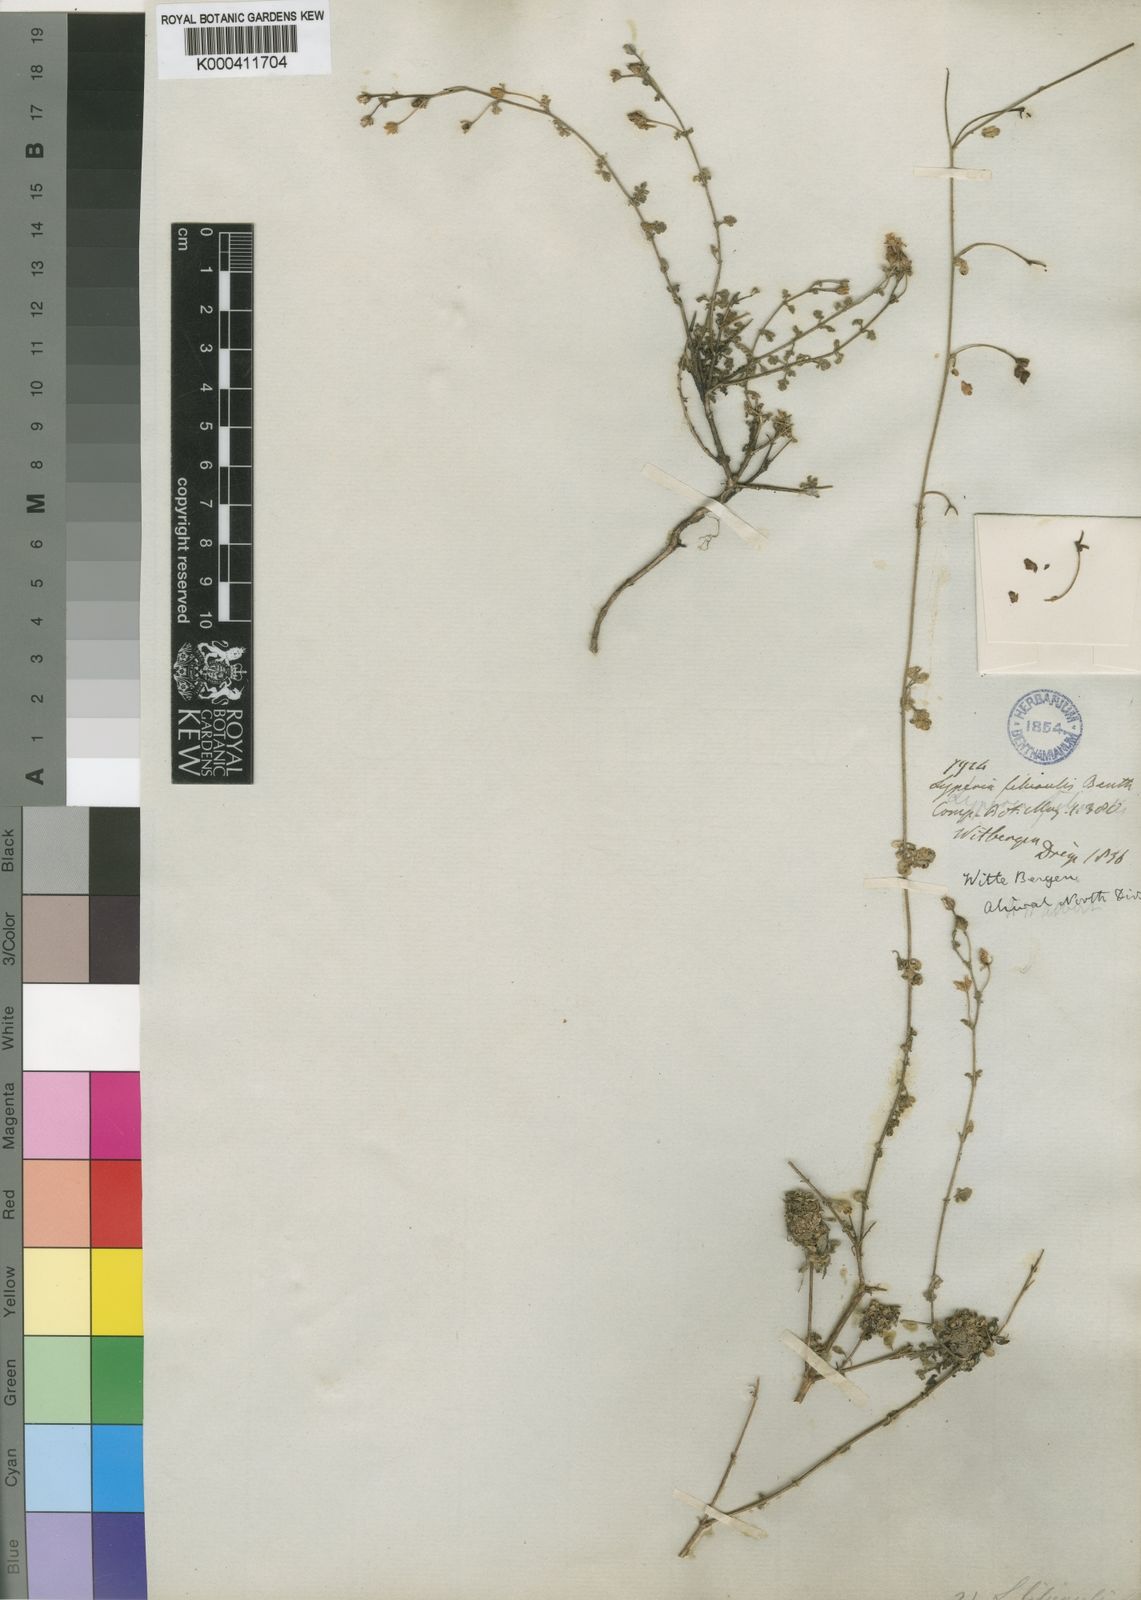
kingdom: Plantae
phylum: Tracheophyta
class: Magnoliopsida
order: Lamiales
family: Scrophulariaceae
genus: Jamesbrittenia
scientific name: Jamesbrittenia filicaulis
